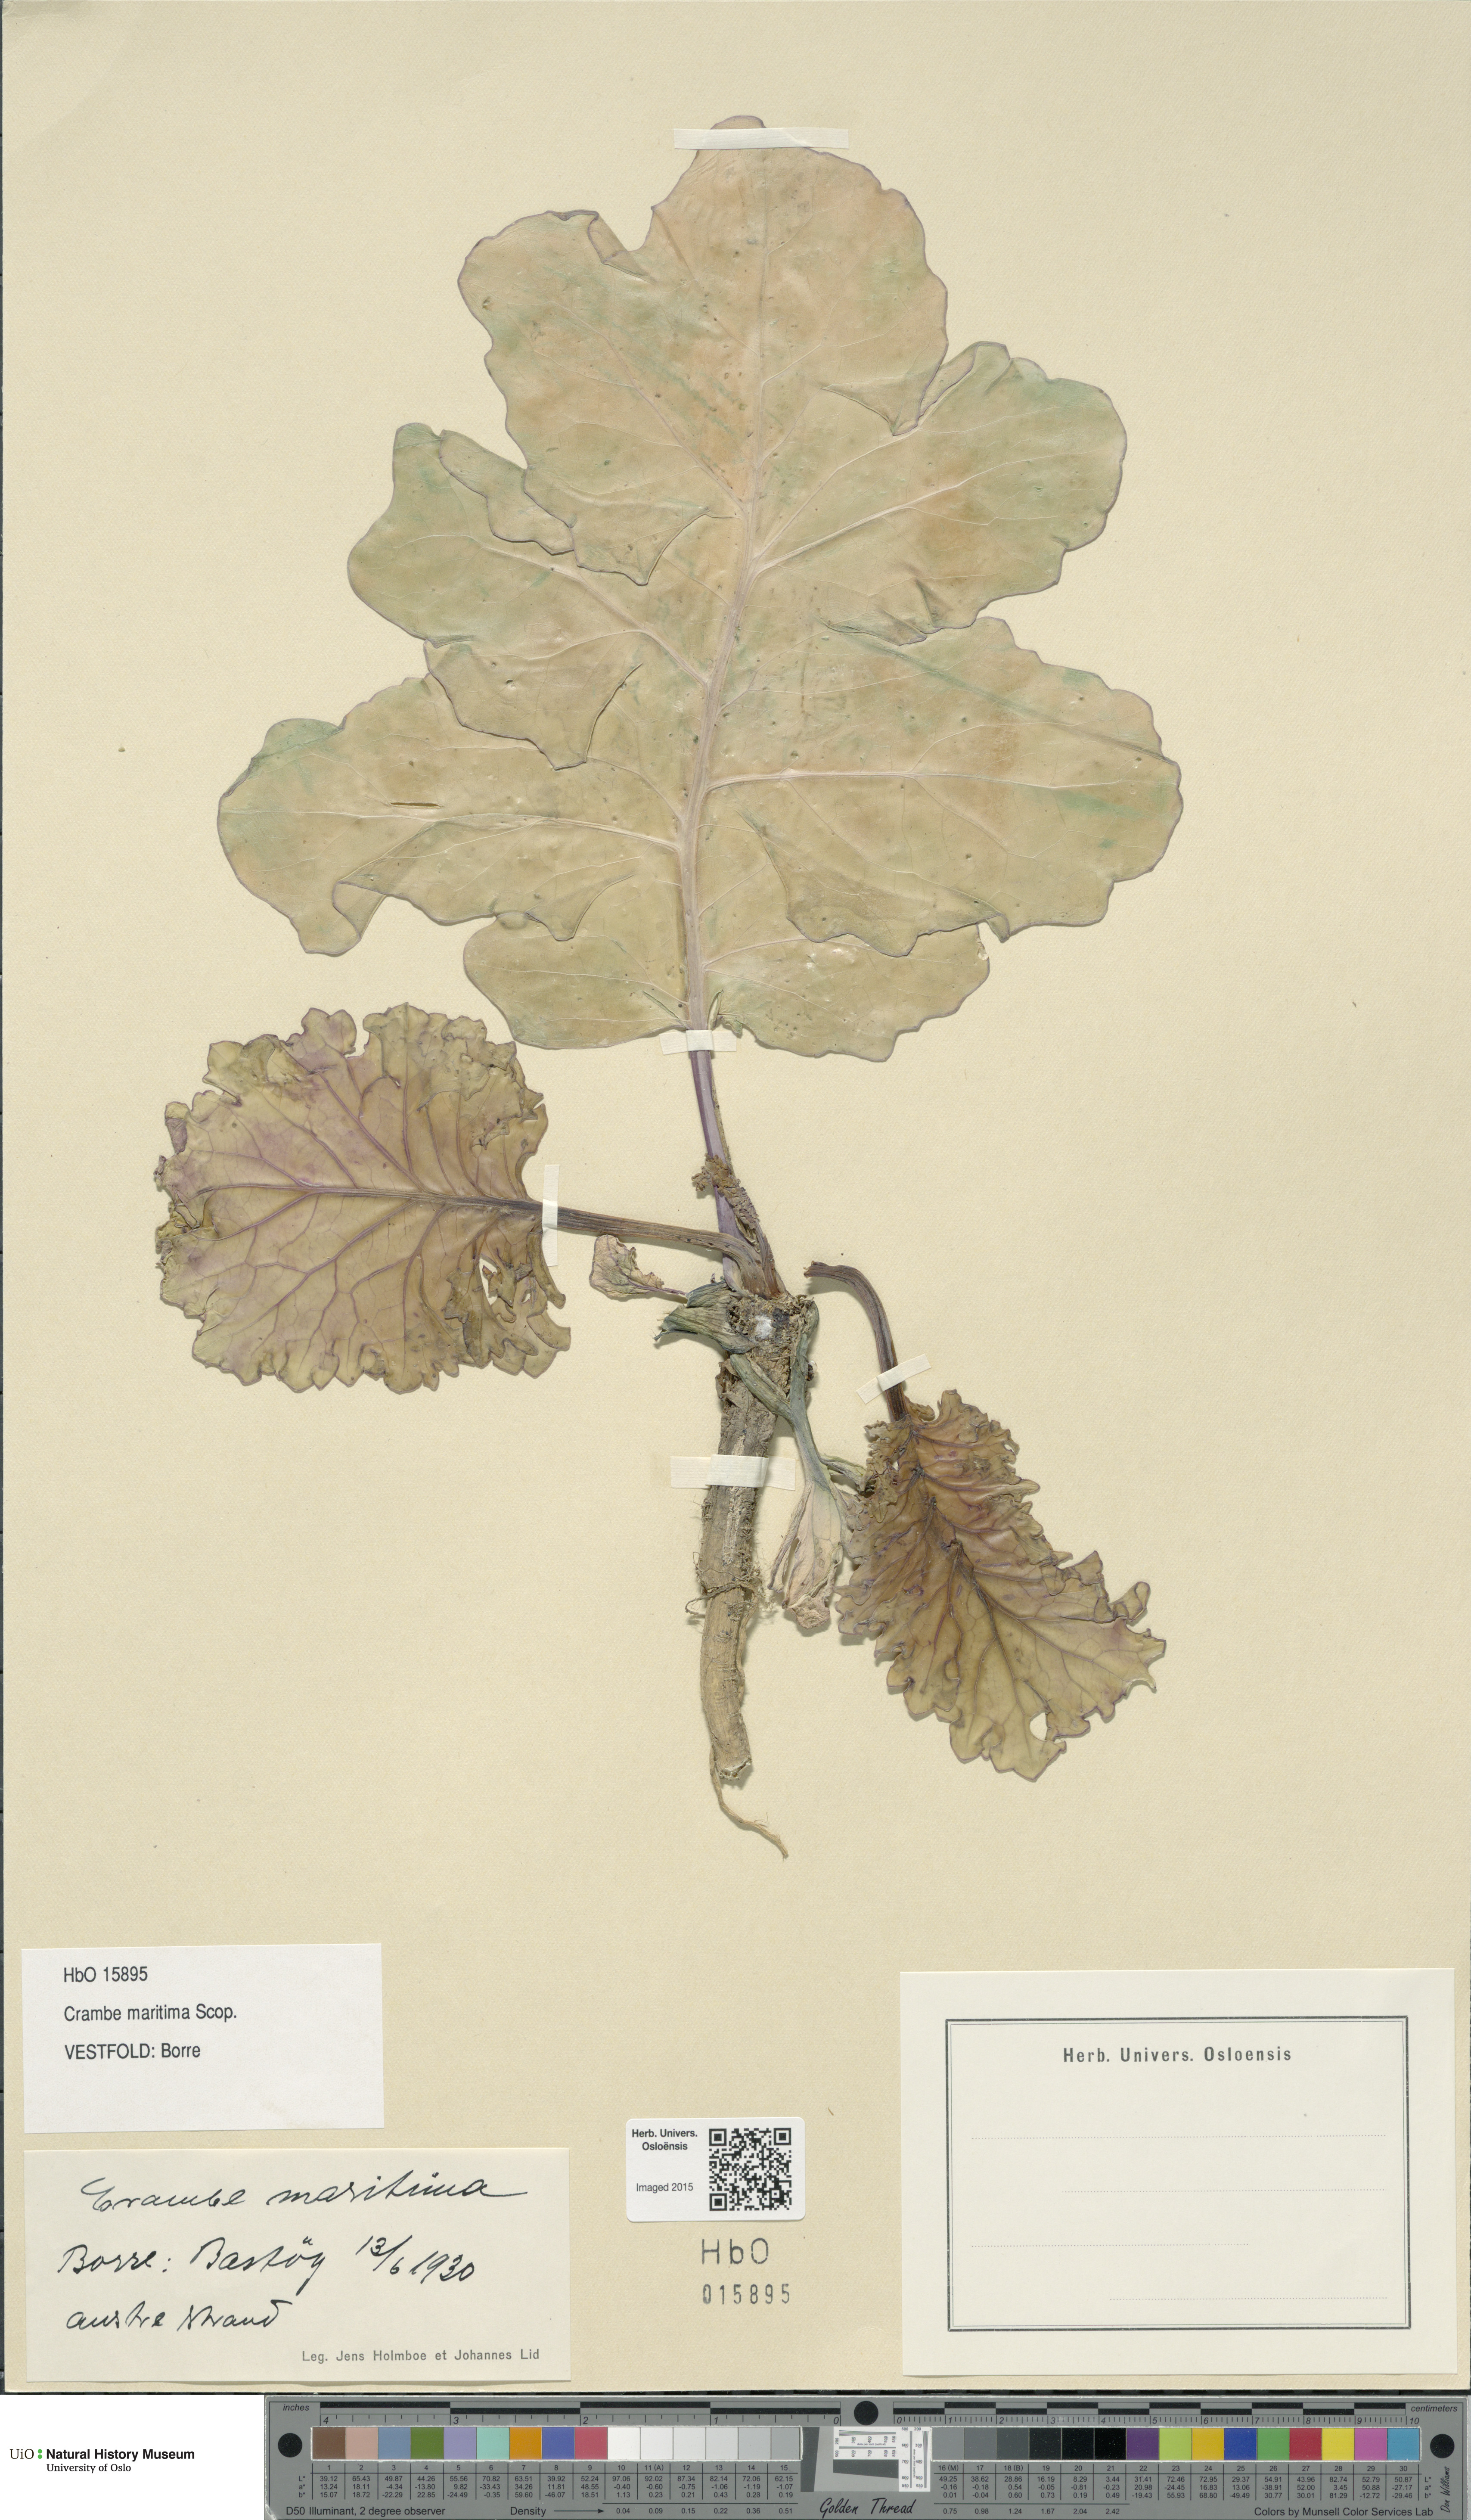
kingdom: Plantae
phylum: Tracheophyta
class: Magnoliopsida
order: Brassicales
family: Brassicaceae
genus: Crambe
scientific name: Crambe maritima
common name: Sea-kale
